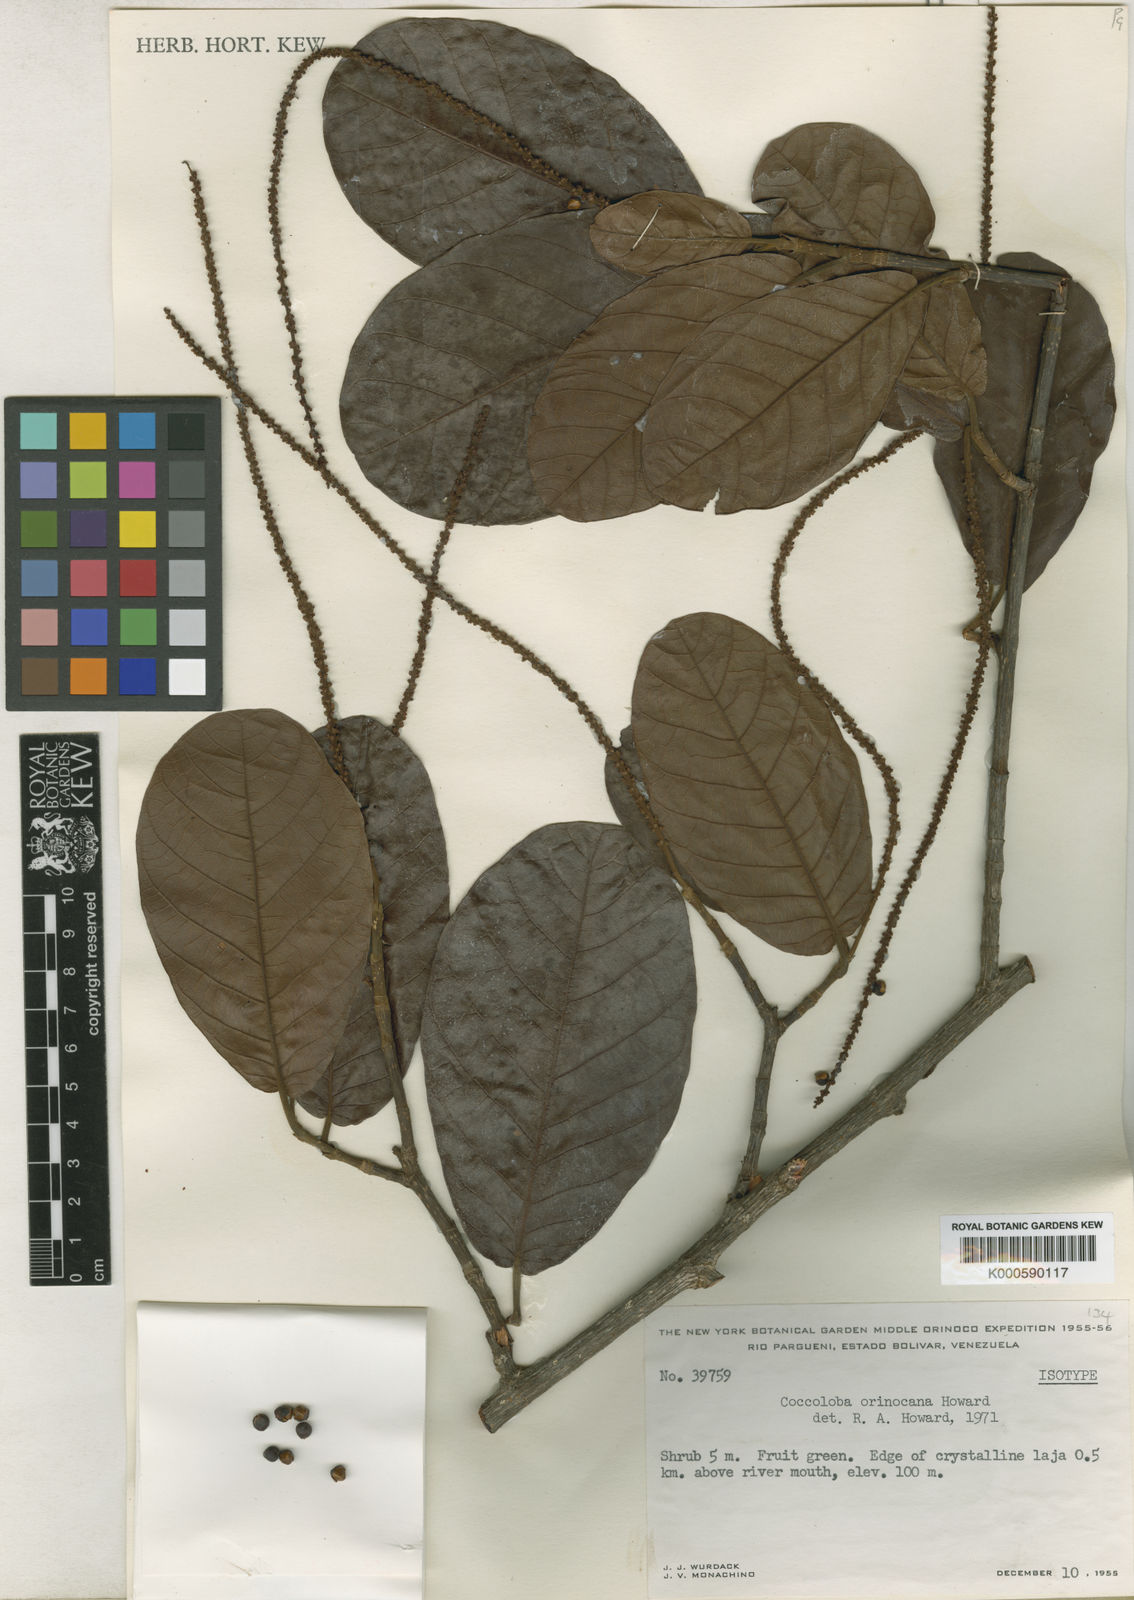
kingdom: Plantae
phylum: Tracheophyta
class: Magnoliopsida
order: Caryophyllales
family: Polygonaceae
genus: Coccoloba
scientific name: Coccoloba orinocana
